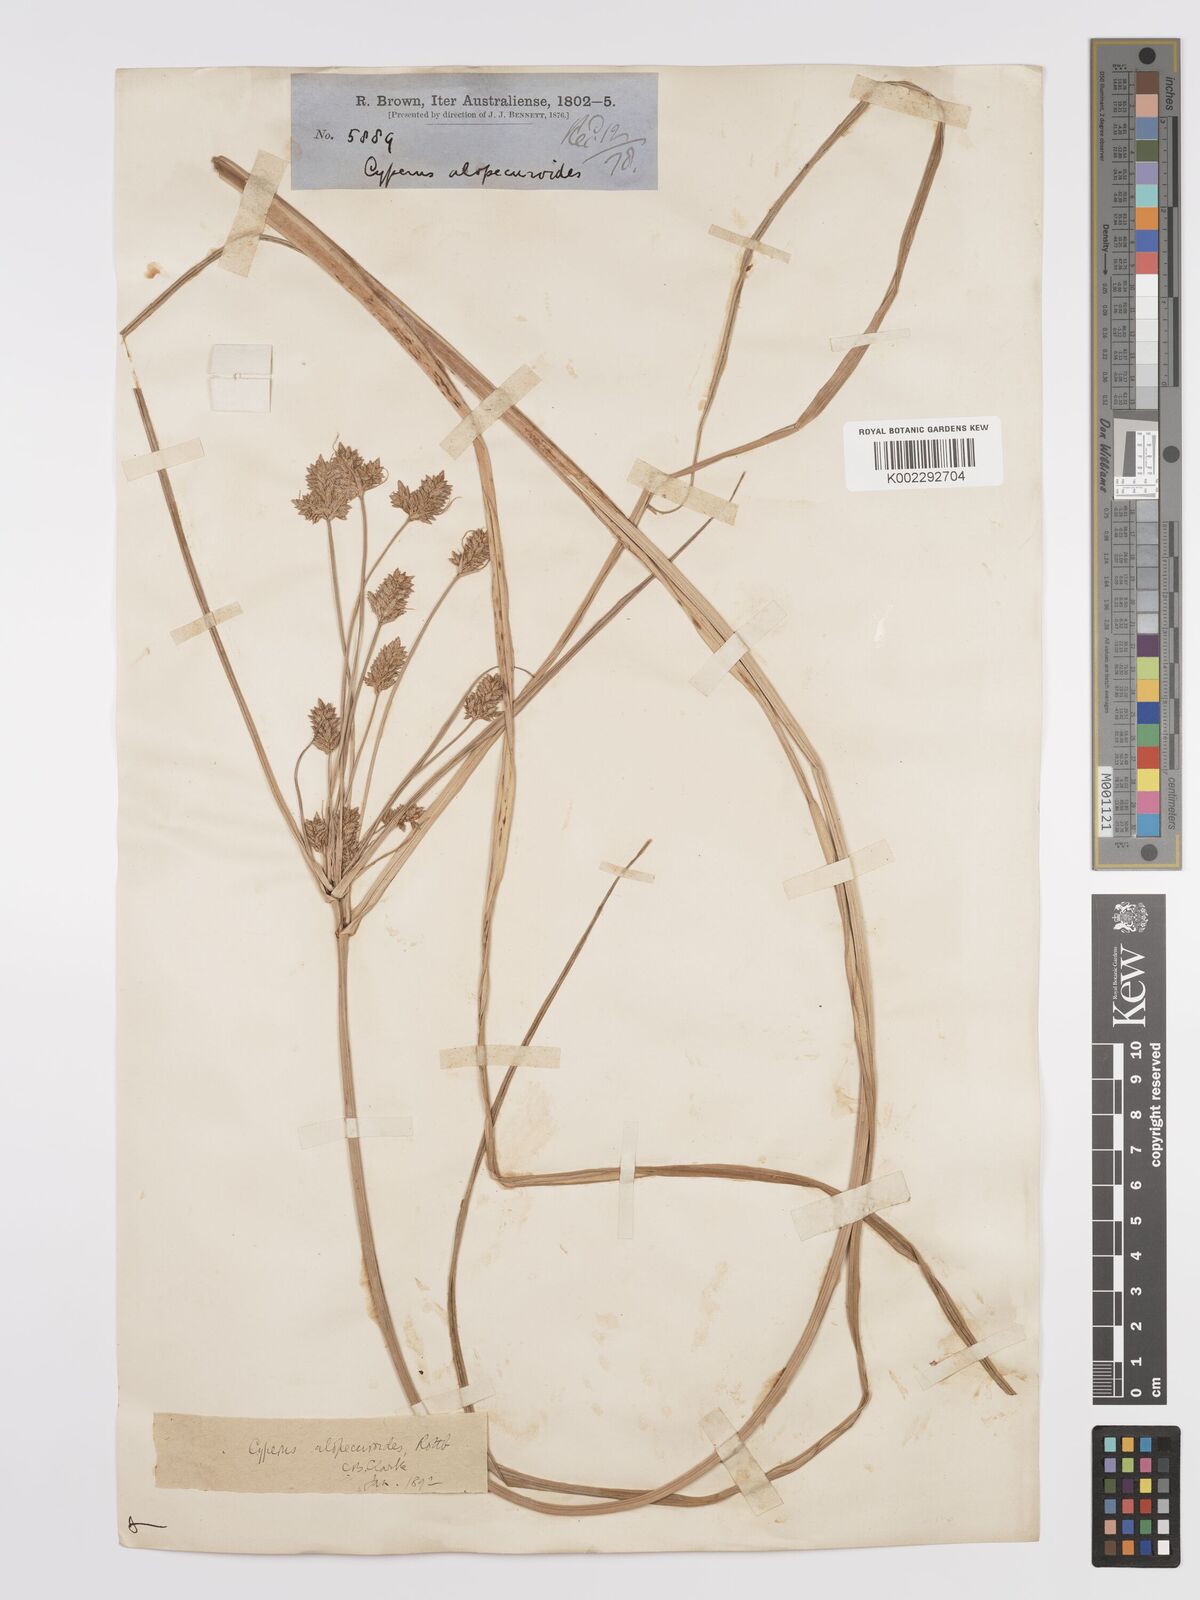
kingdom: Plantae
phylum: Tracheophyta
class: Liliopsida
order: Poales
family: Cyperaceae
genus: Cyperus
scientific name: Cyperus alopecuroides
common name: Foxtail flatsedge
